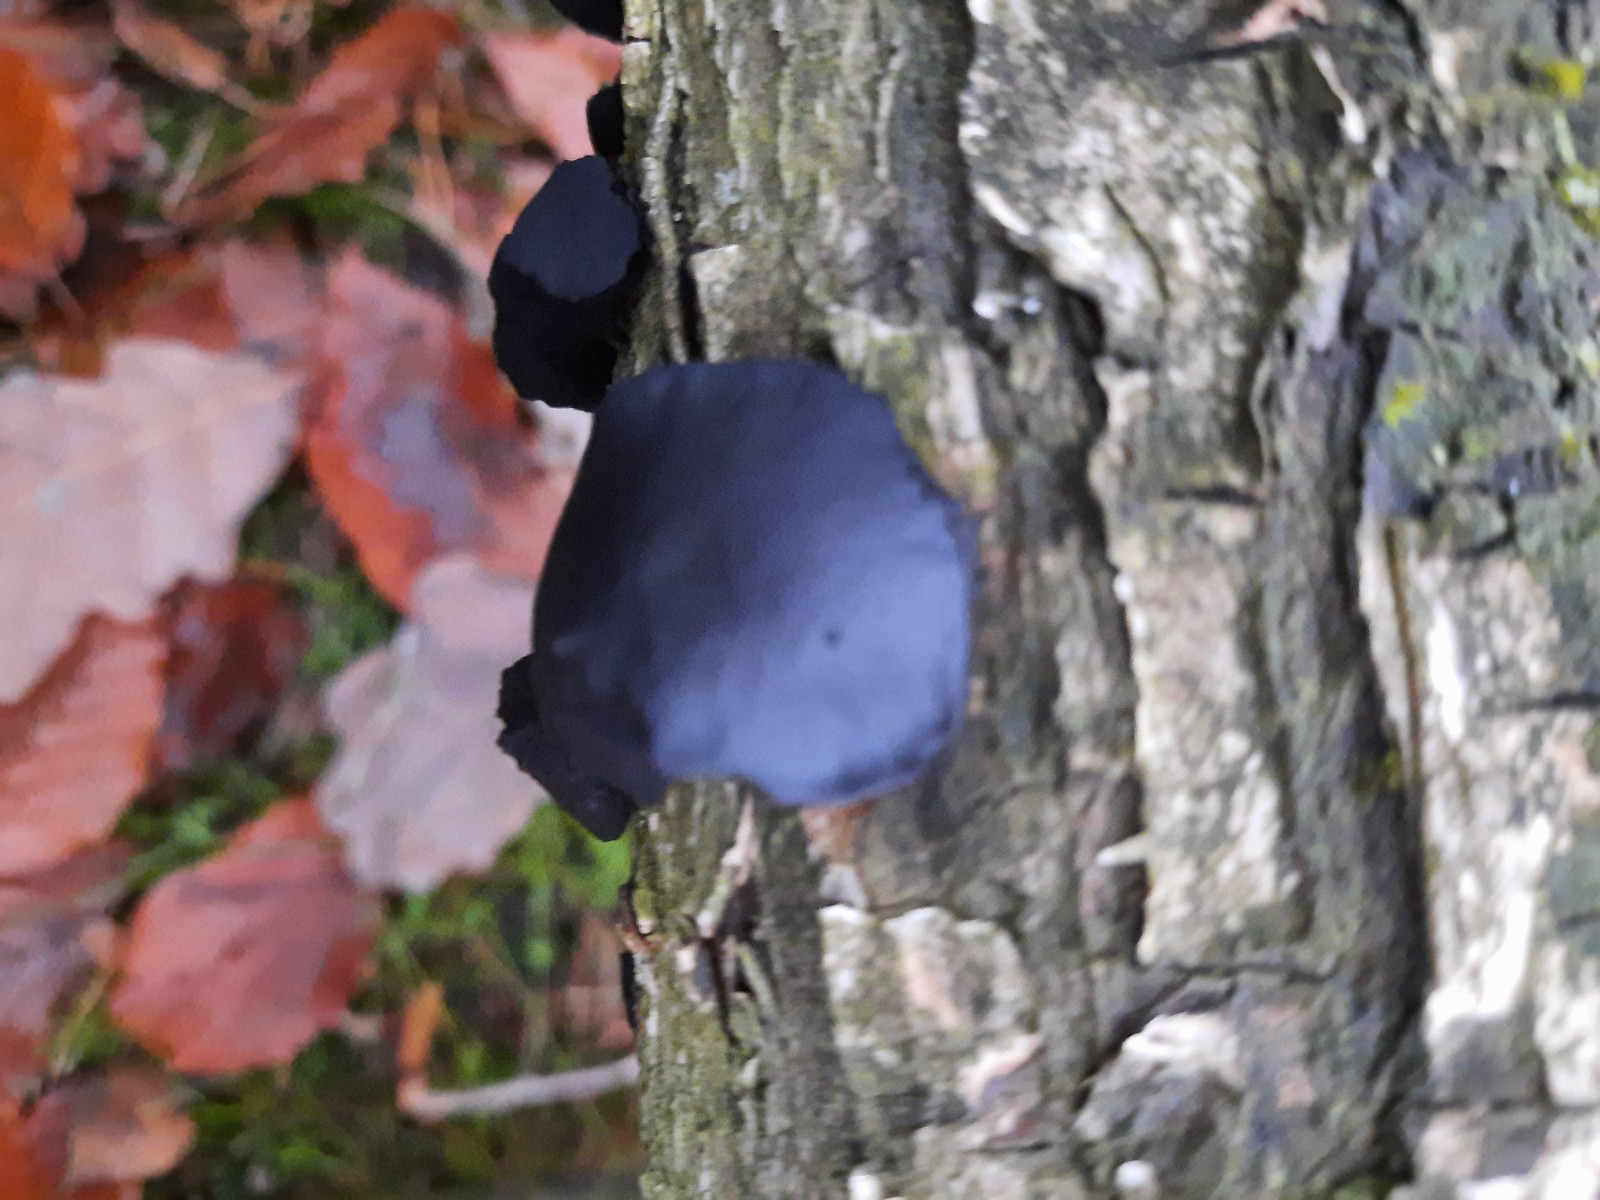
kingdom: Fungi
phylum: Ascomycota
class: Leotiomycetes
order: Phacidiales
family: Phacidiaceae
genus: Bulgaria
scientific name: Bulgaria inquinans
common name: afsmittende topsvamp
